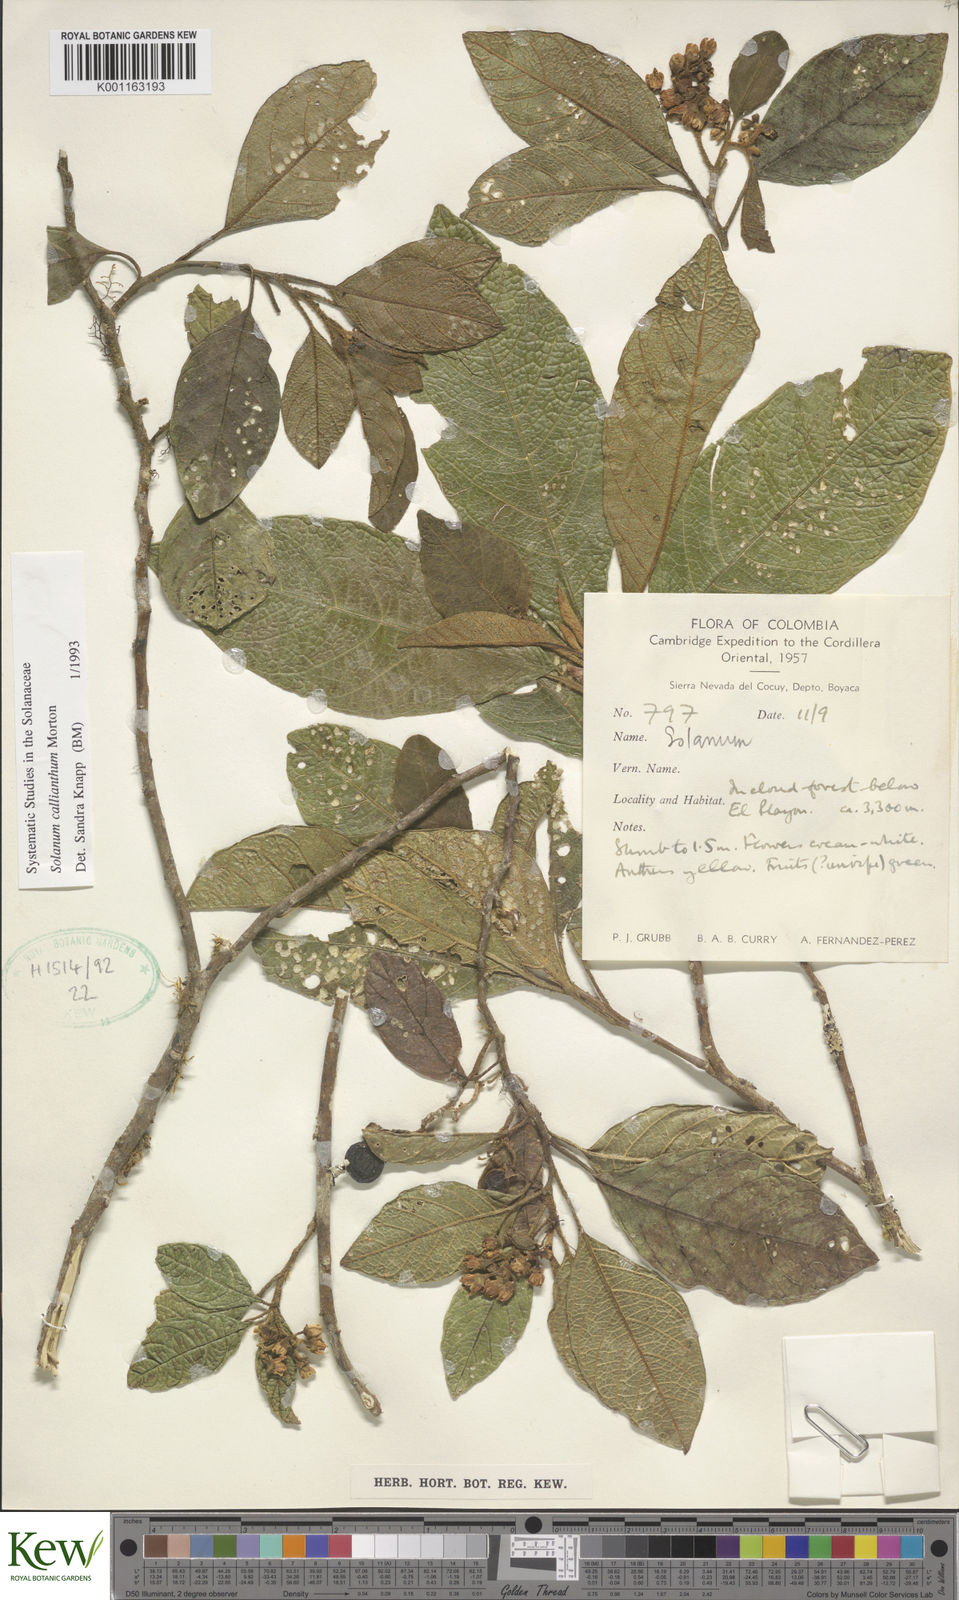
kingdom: Plantae
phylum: Tracheophyta
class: Magnoliopsida
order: Solanales
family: Solanaceae
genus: Solanum
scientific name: Solanum callianthum
